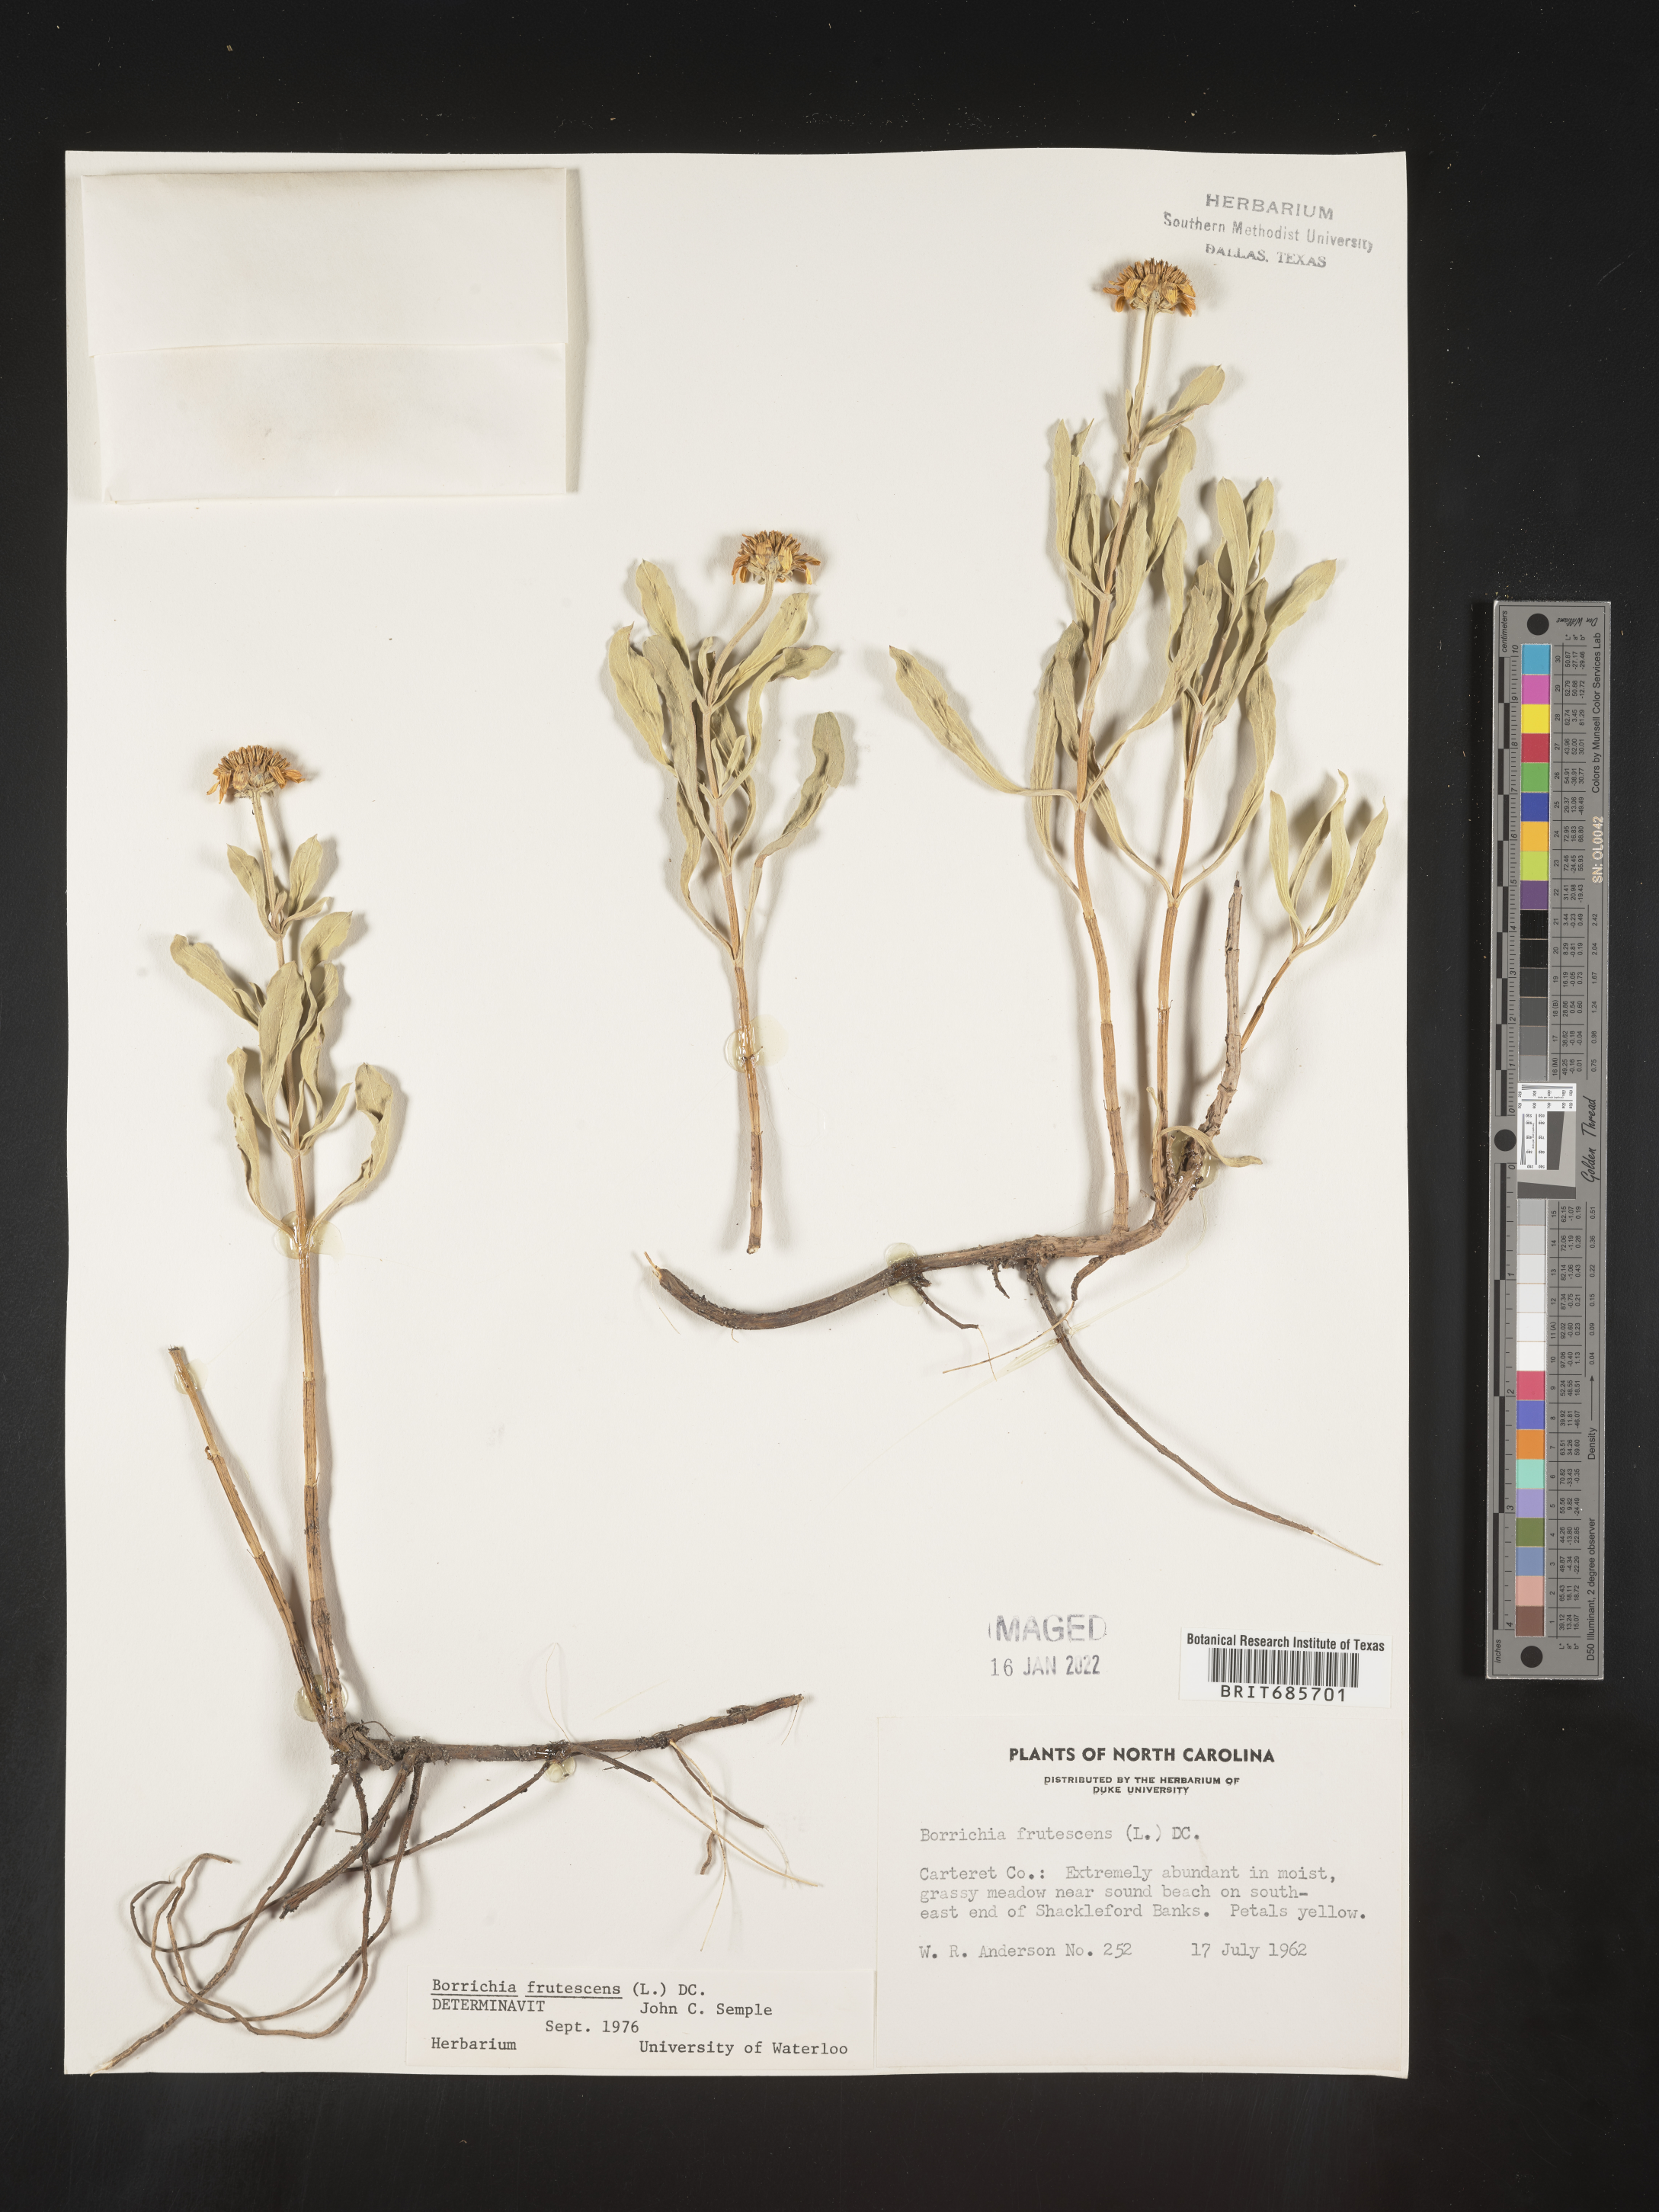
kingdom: Plantae
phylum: Tracheophyta
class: Magnoliopsida
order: Asterales
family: Asteraceae
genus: Borrichia
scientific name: Borrichia frutescens
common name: Sea oxeye
